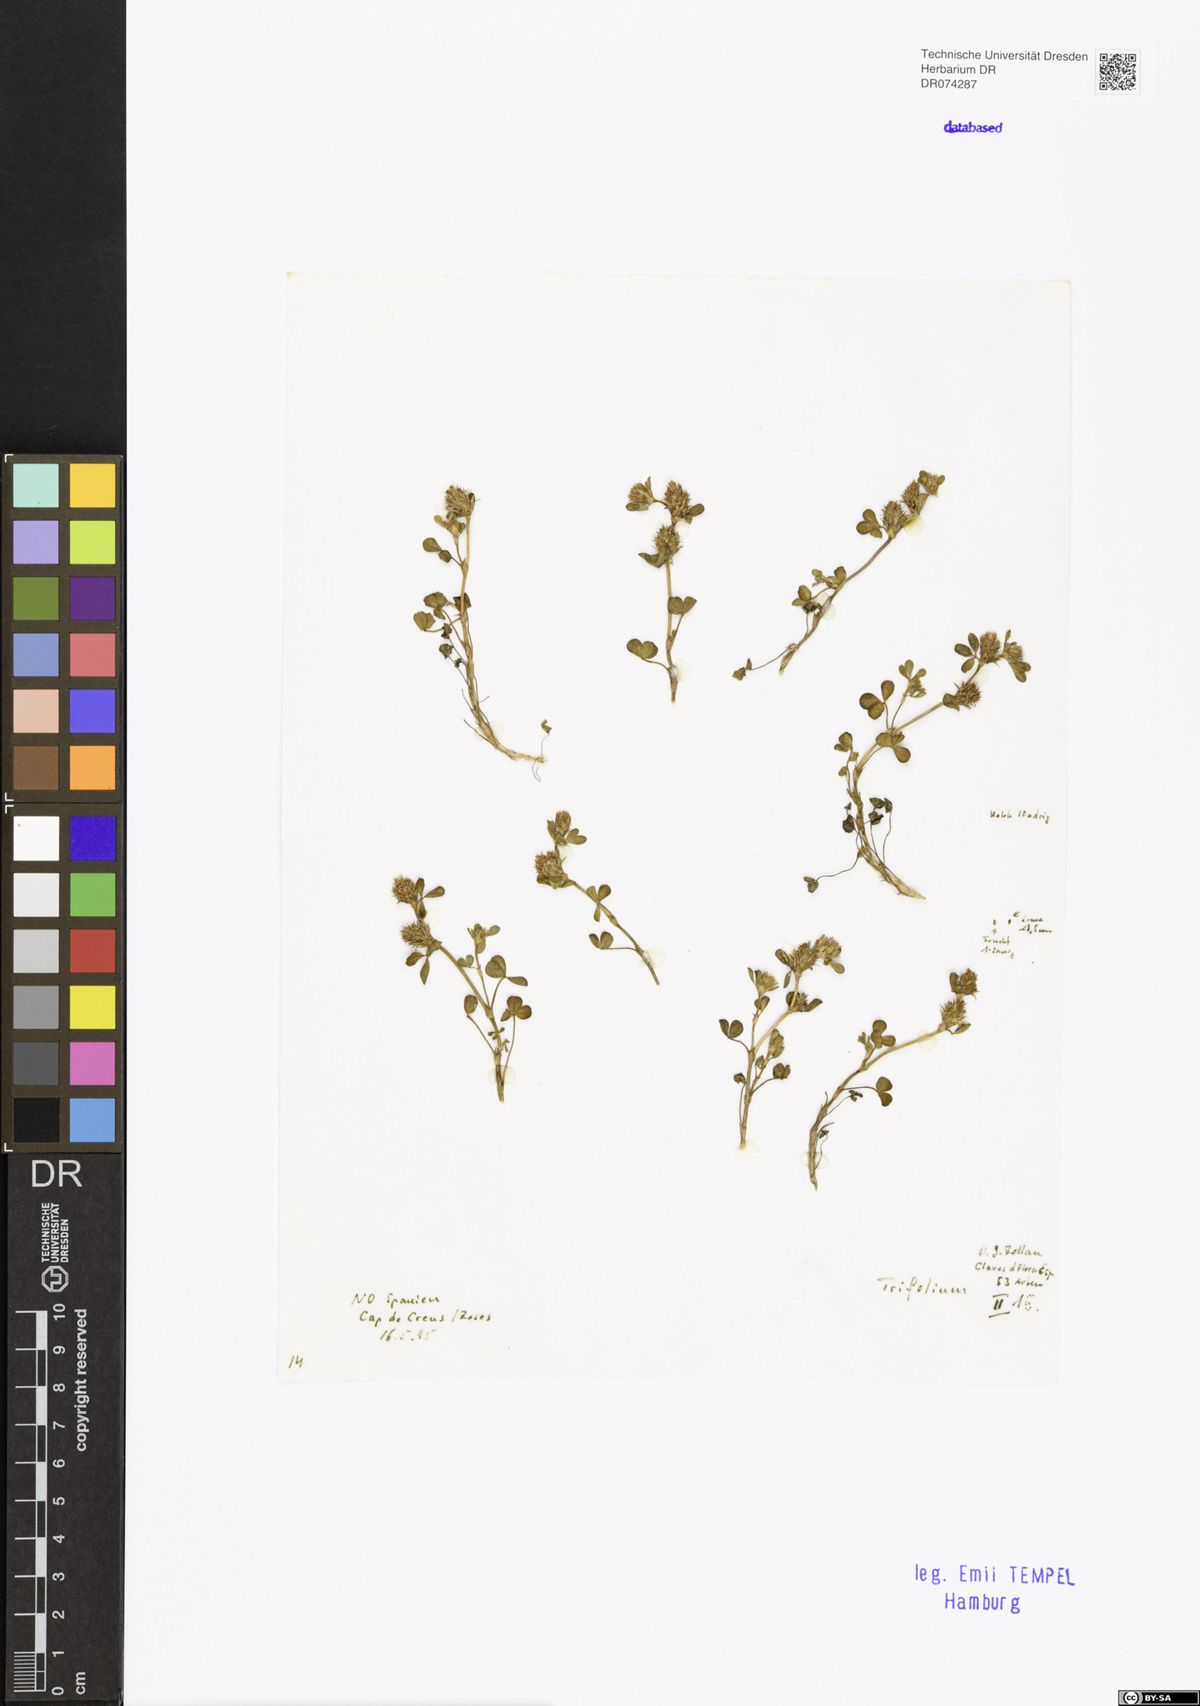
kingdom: Plantae
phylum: Tracheophyta
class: Magnoliopsida
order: Fabales
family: Fabaceae
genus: Trifolium
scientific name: Trifolium
